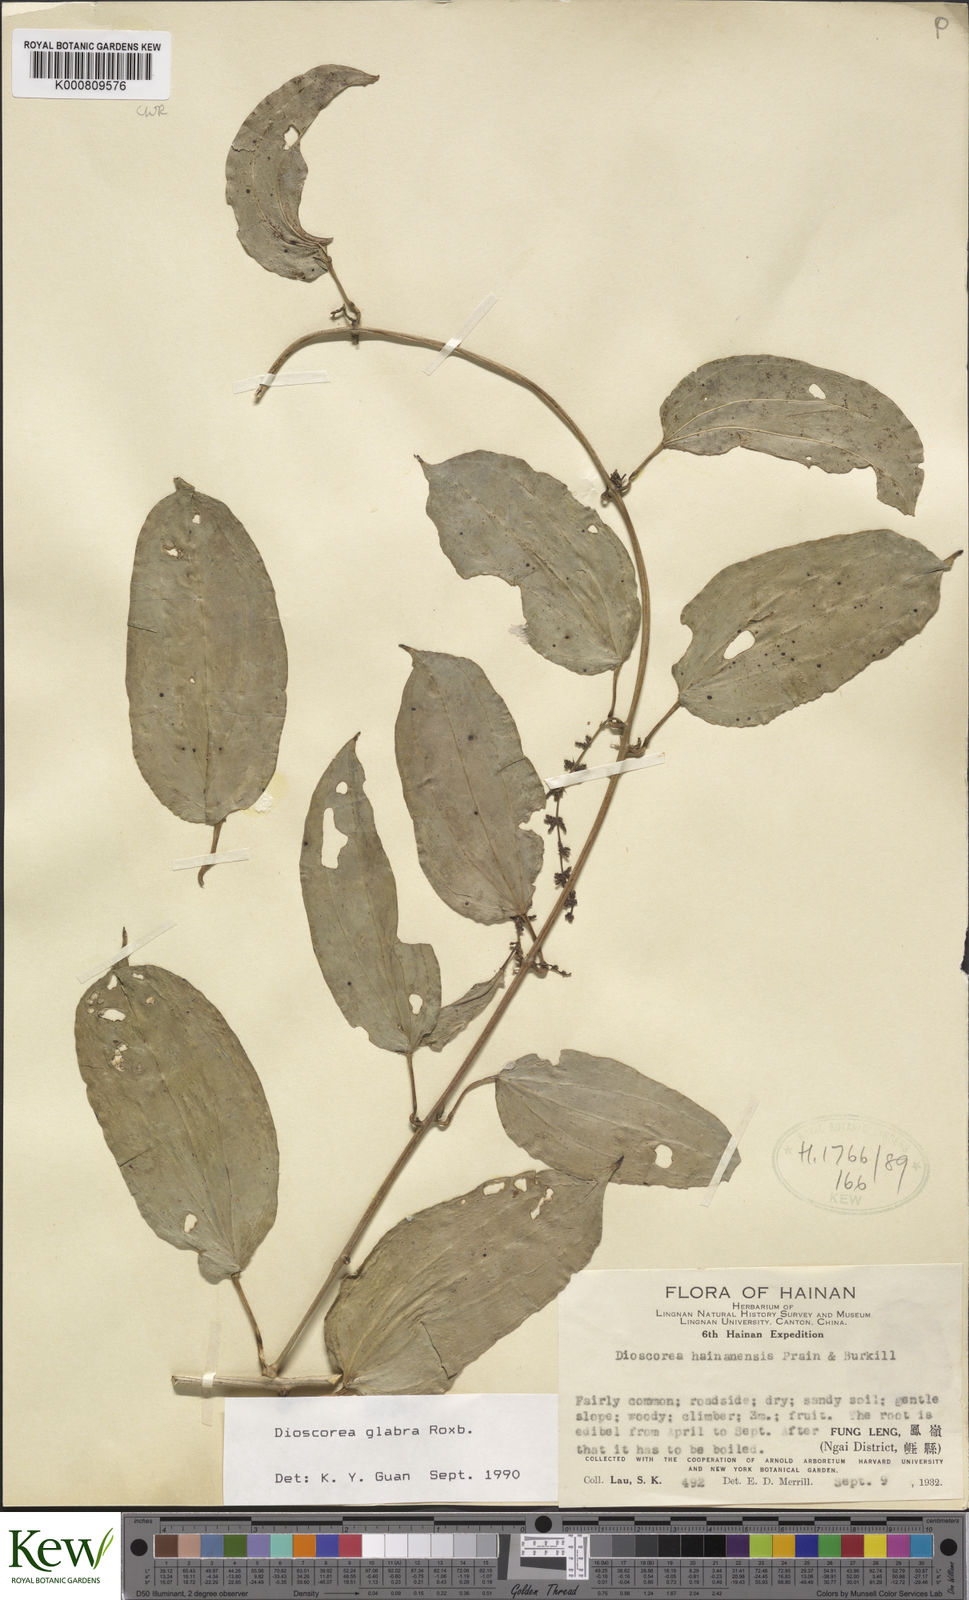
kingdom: Plantae
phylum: Tracheophyta
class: Liliopsida
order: Dioscoreales
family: Dioscoreaceae
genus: Dioscorea
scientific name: Dioscorea glabra
